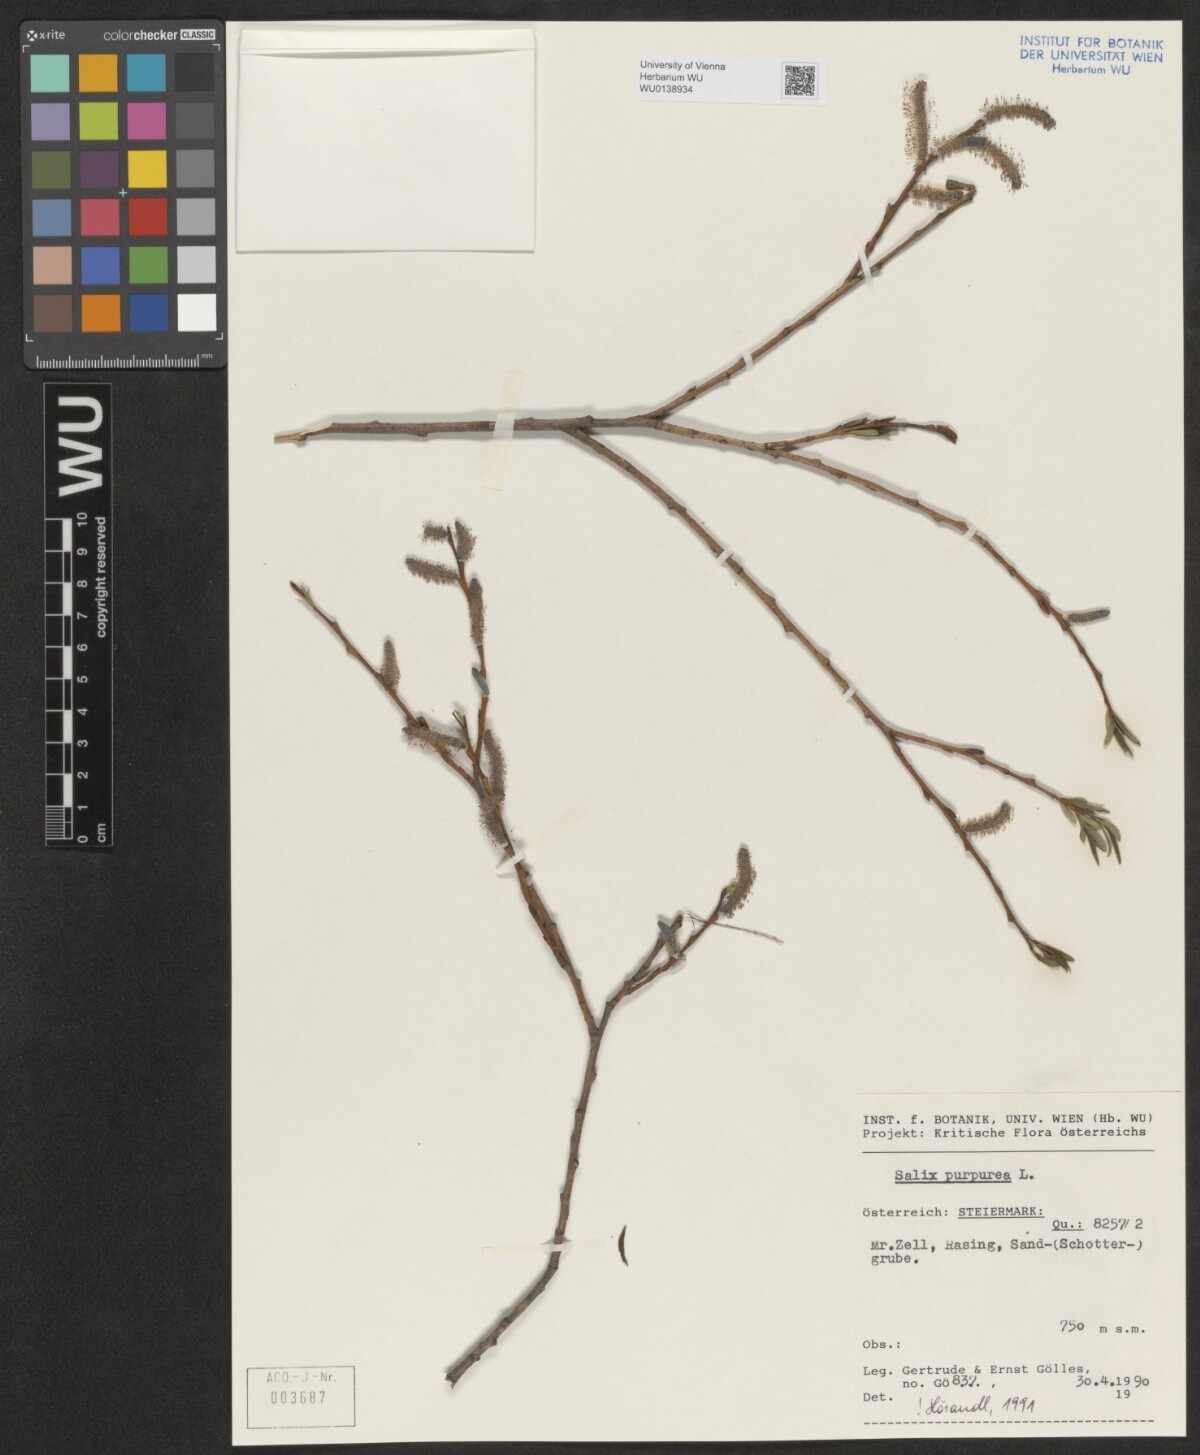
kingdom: Plantae
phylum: Tracheophyta
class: Magnoliopsida
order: Malpighiales
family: Salicaceae
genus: Salix
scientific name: Salix purpurea
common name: Purple willow
